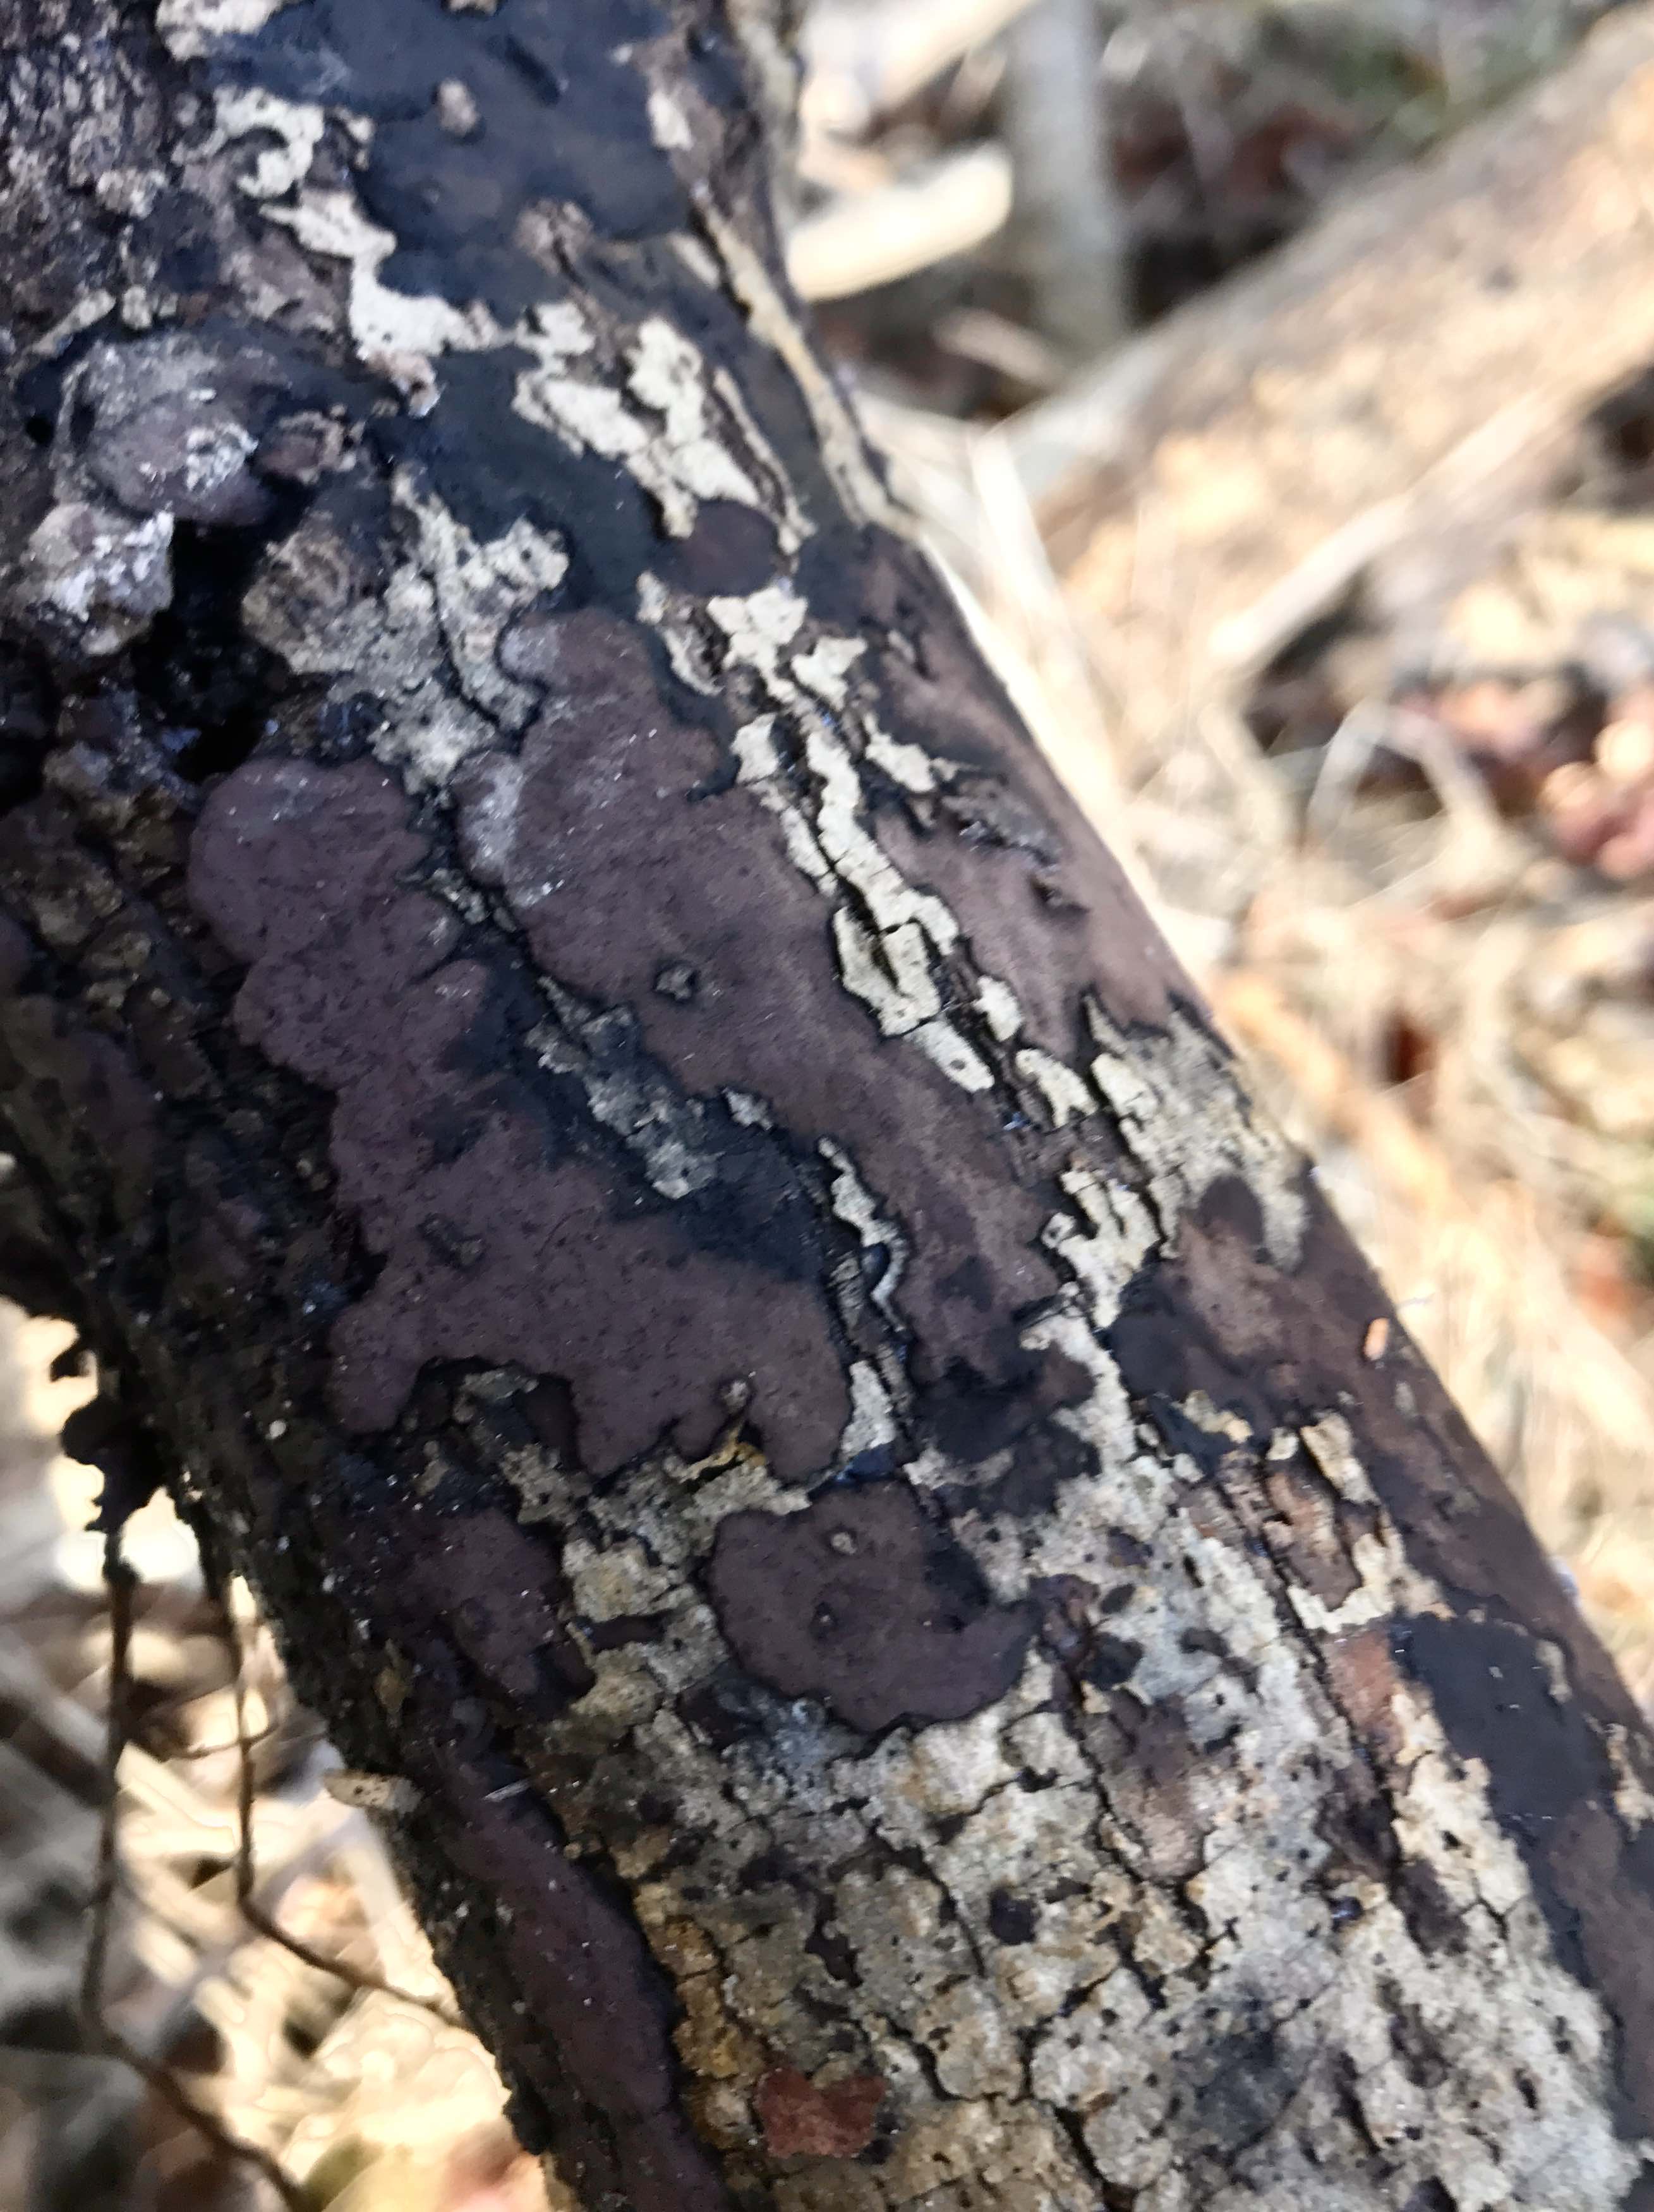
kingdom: Fungi
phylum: Ascomycota
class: Sordariomycetes
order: Xylariales
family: Hypoxylaceae
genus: Hypoxylon
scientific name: Hypoxylon petriniae
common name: nedsænket kulbær
